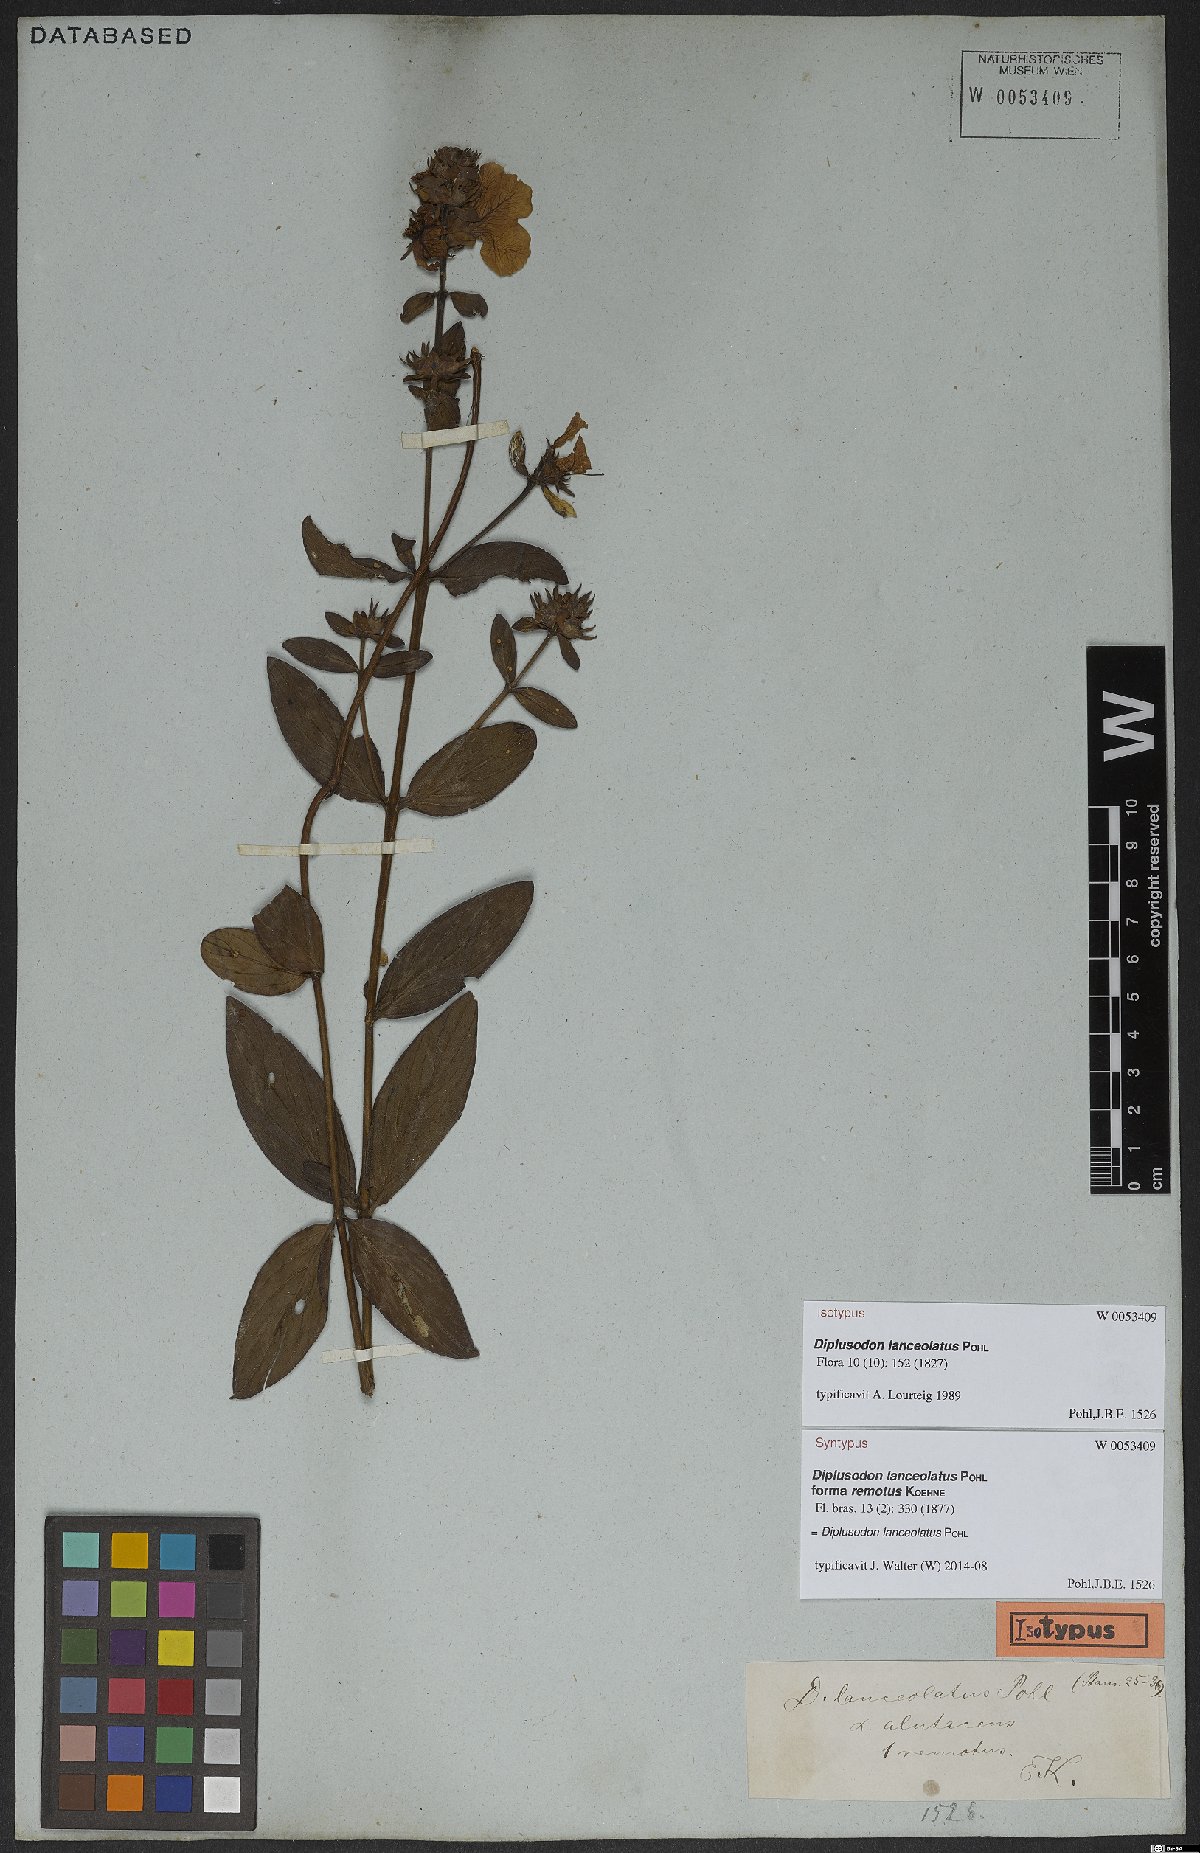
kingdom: Plantae
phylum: Tracheophyta
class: Magnoliopsida
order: Myrtales
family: Lythraceae
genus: Diplusodon
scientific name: Diplusodon lanceolatus
